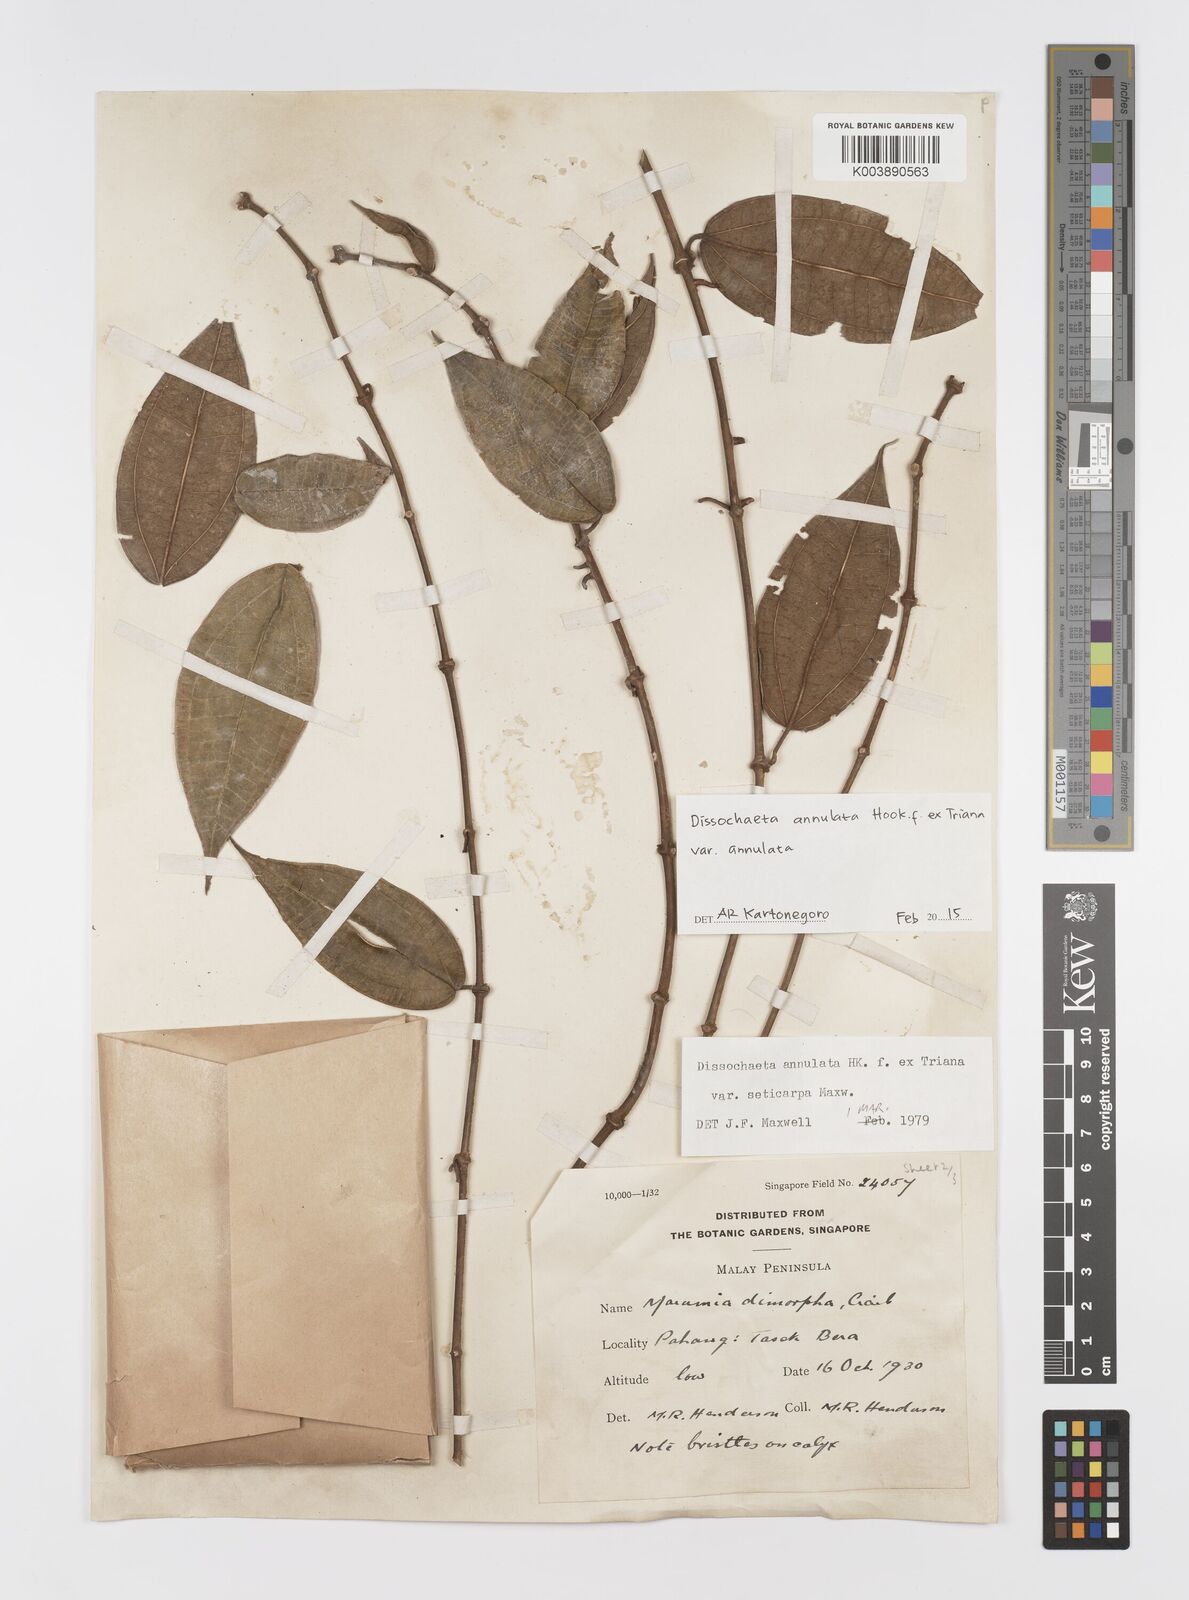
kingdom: Plantae
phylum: Tracheophyta
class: Magnoliopsida
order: Myrtales
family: Melastomataceae
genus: Dissochaeta
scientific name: Dissochaeta annulata
